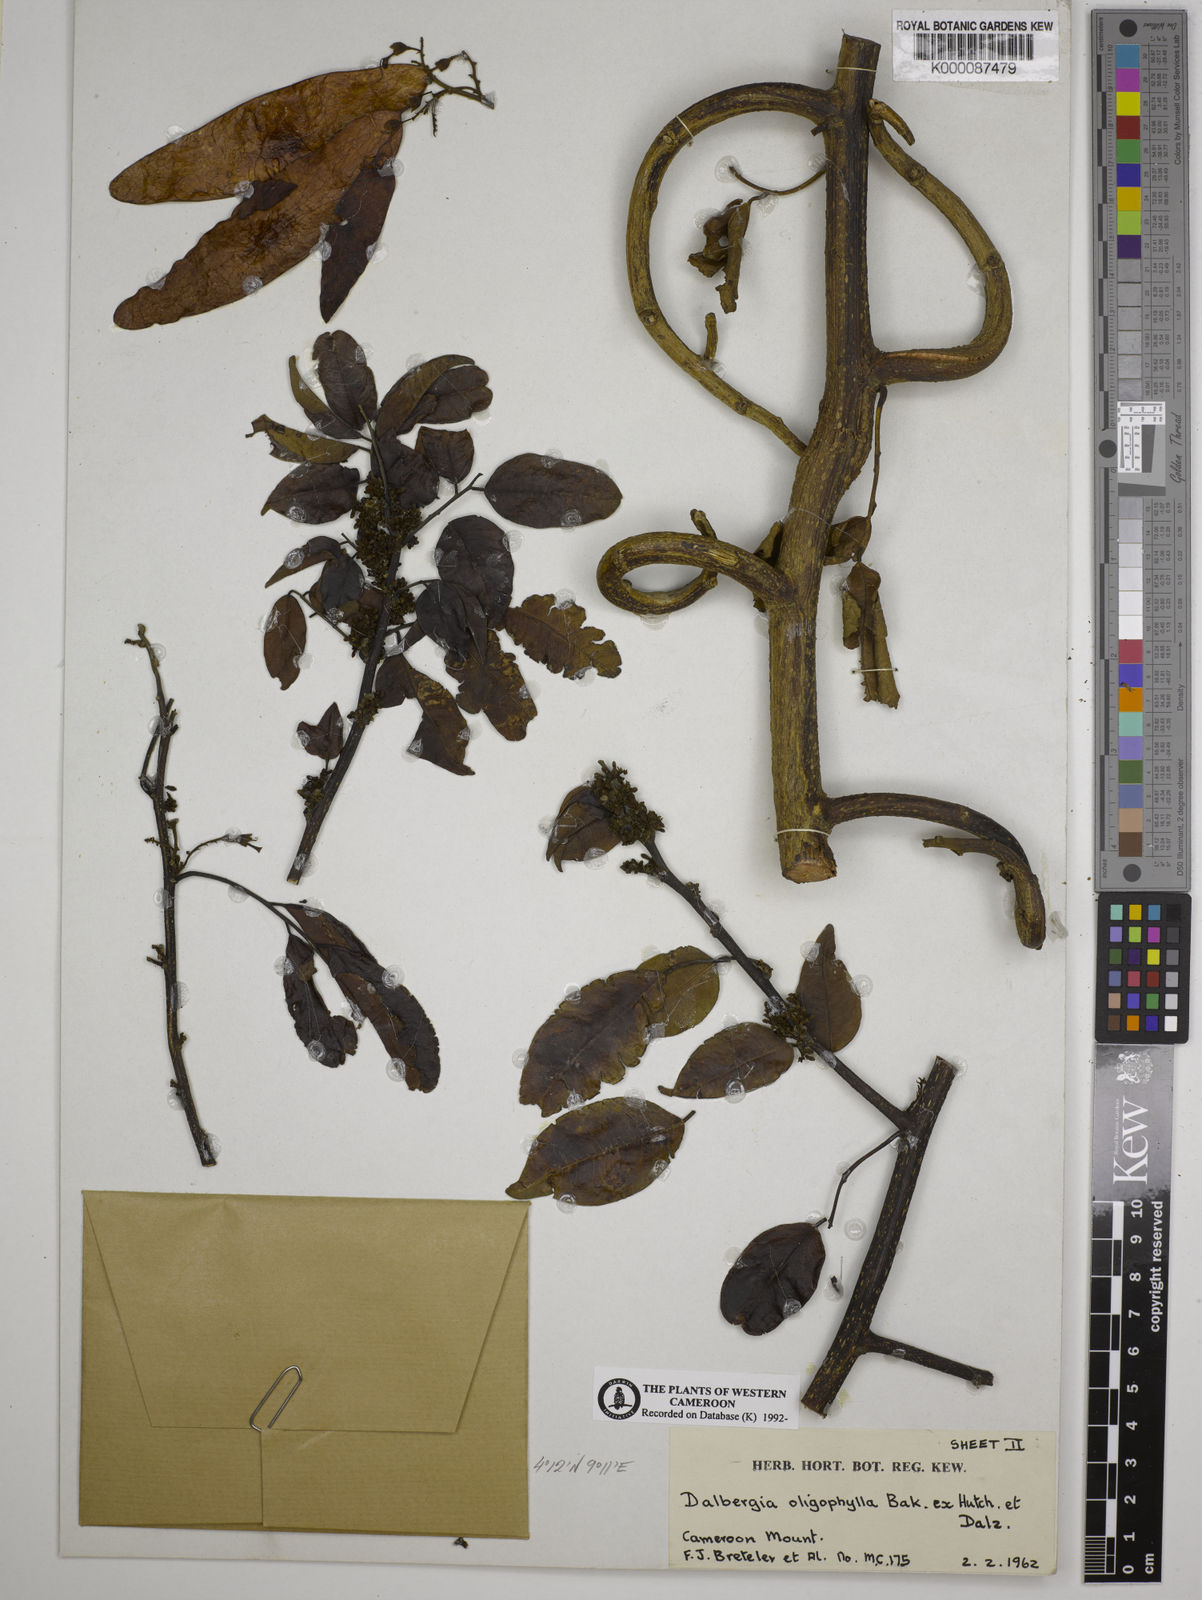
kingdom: Plantae
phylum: Tracheophyta
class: Magnoliopsida
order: Fabales
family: Fabaceae
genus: Dalbergia
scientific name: Dalbergia oligophylla
